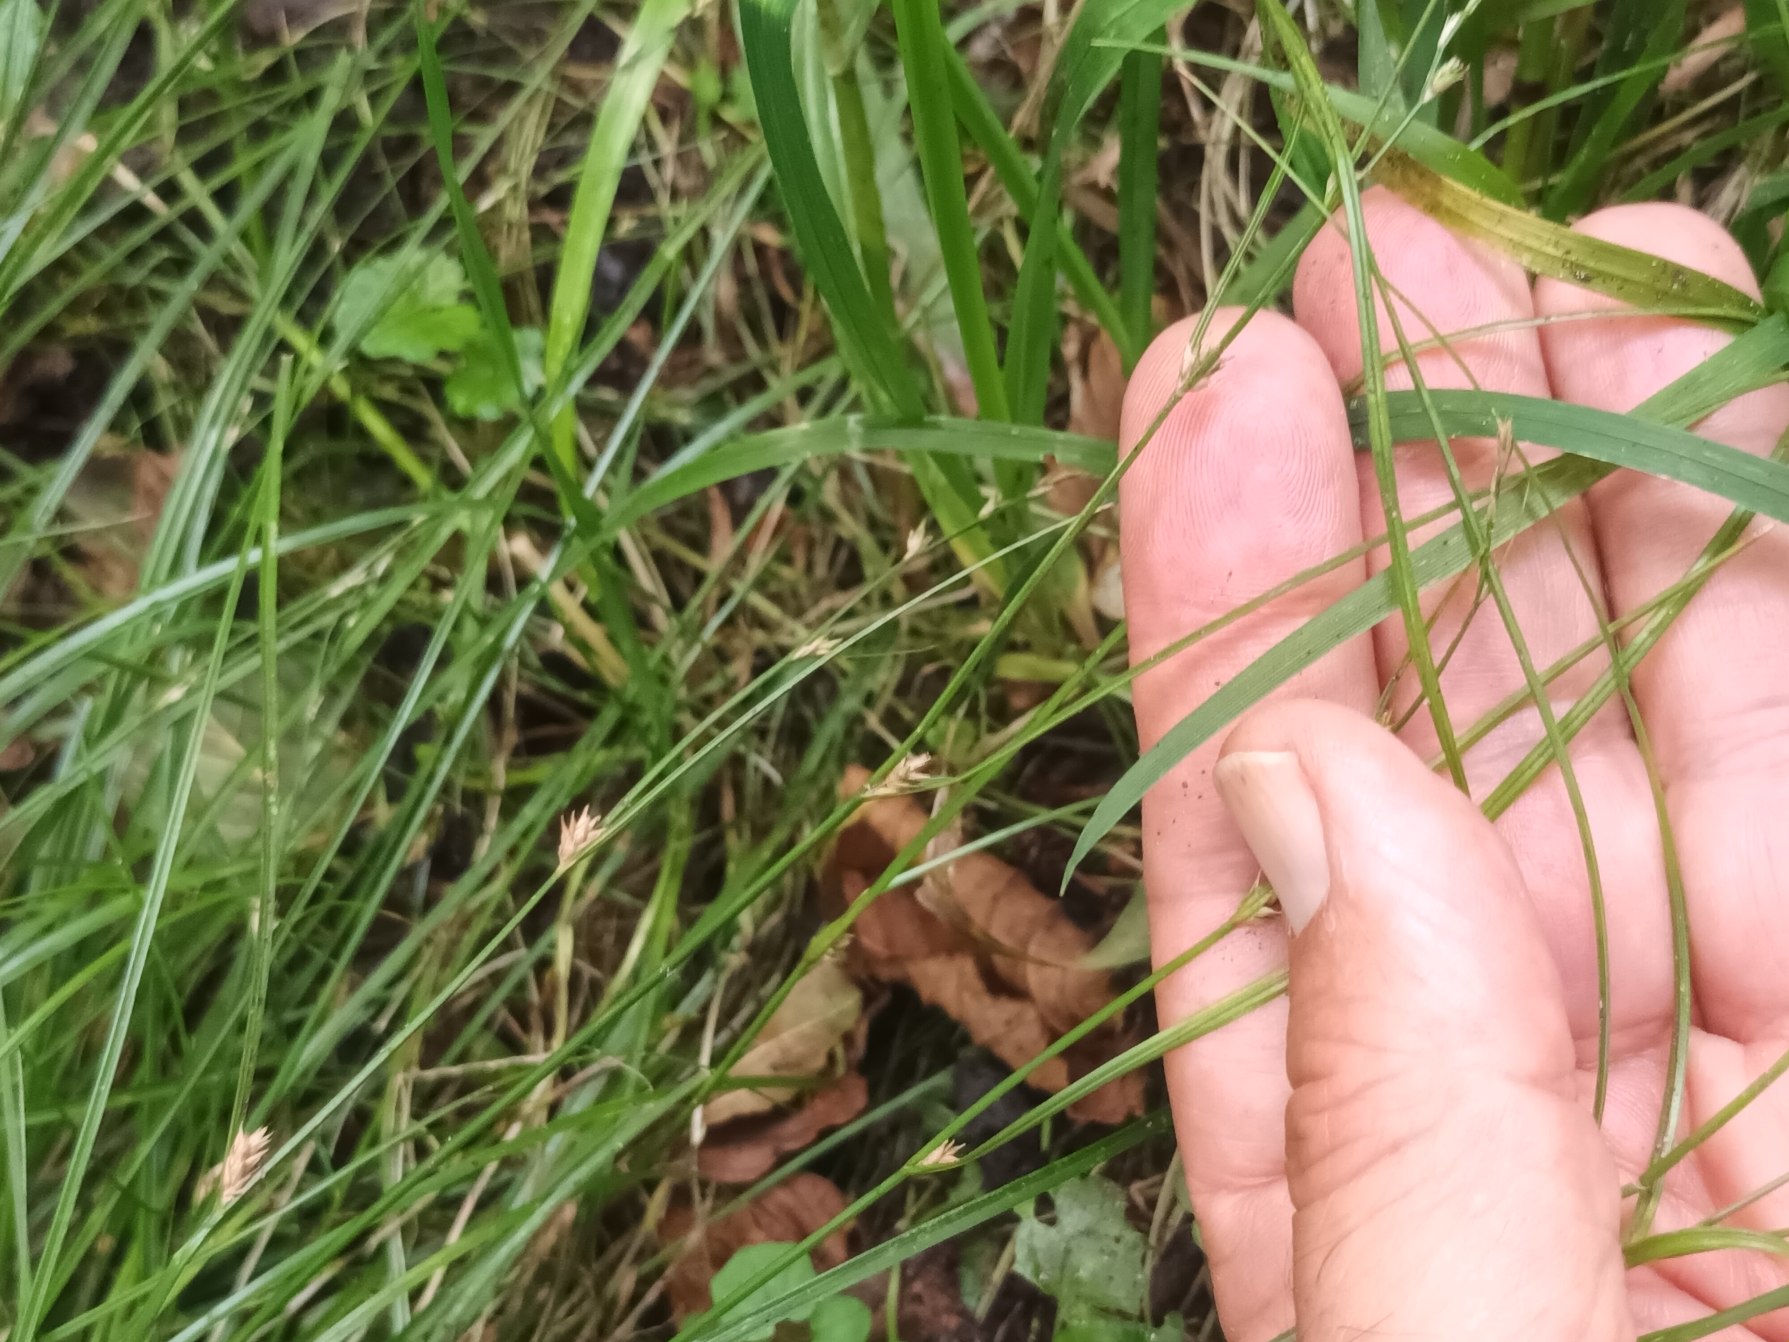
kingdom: Plantae
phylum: Tracheophyta
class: Liliopsida
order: Poales
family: Cyperaceae
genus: Carex
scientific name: Carex remota
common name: Akselblomstret star
